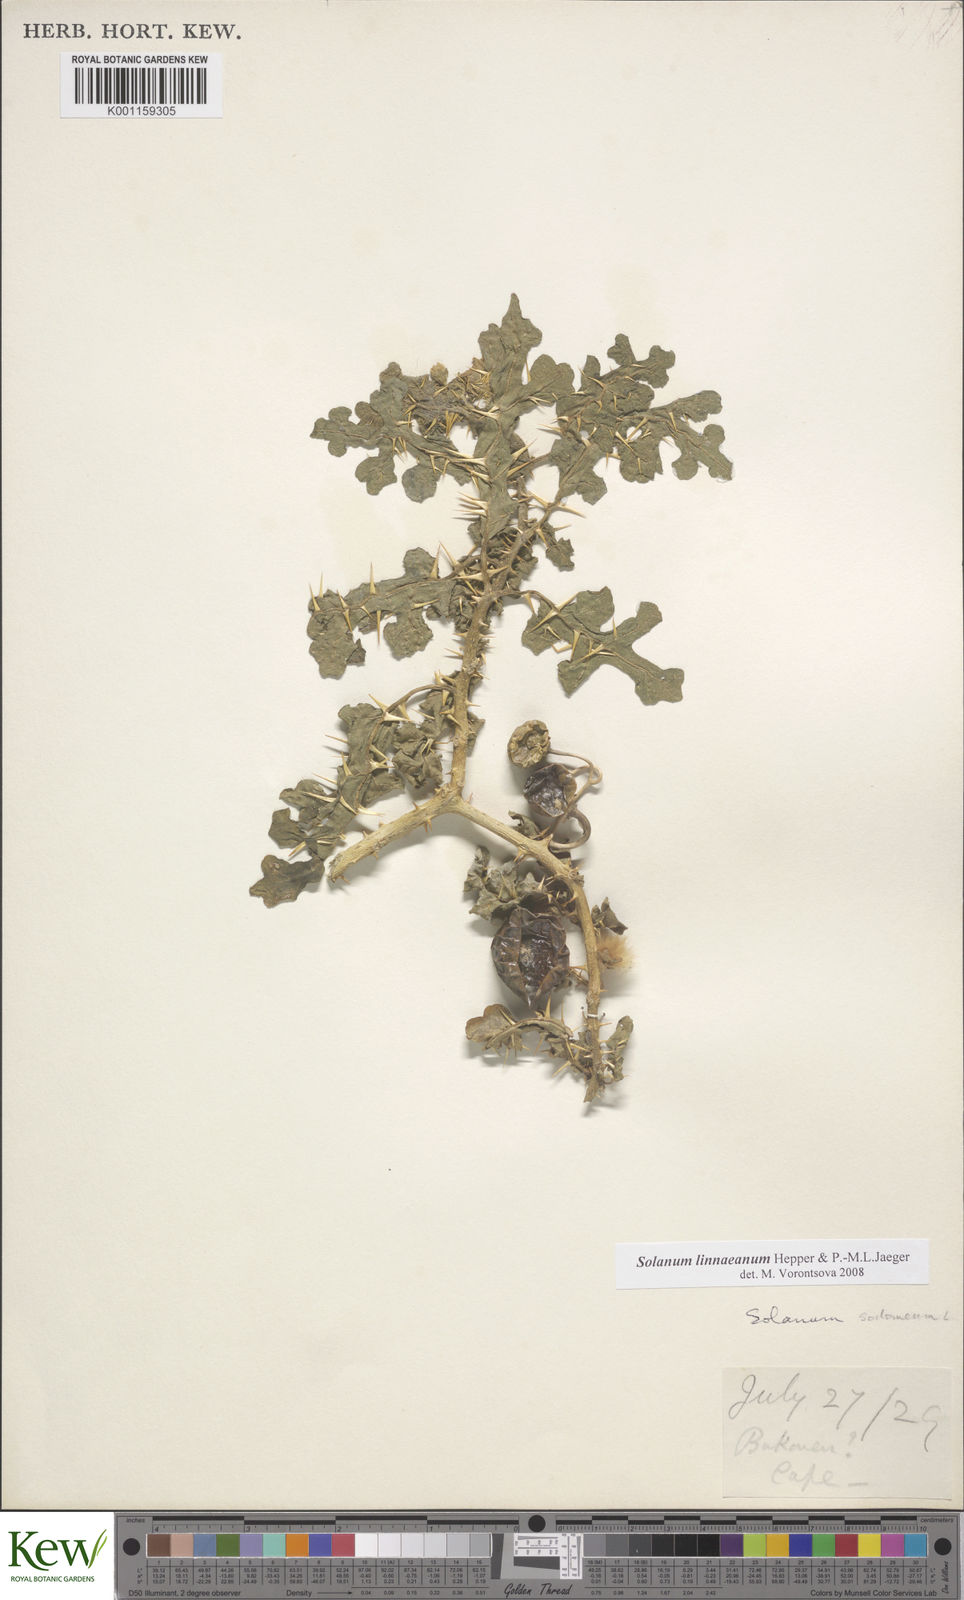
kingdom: Plantae
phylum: Tracheophyta
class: Magnoliopsida
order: Solanales
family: Solanaceae
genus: Solanum
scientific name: Solanum linnaeanum
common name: Nightshade
